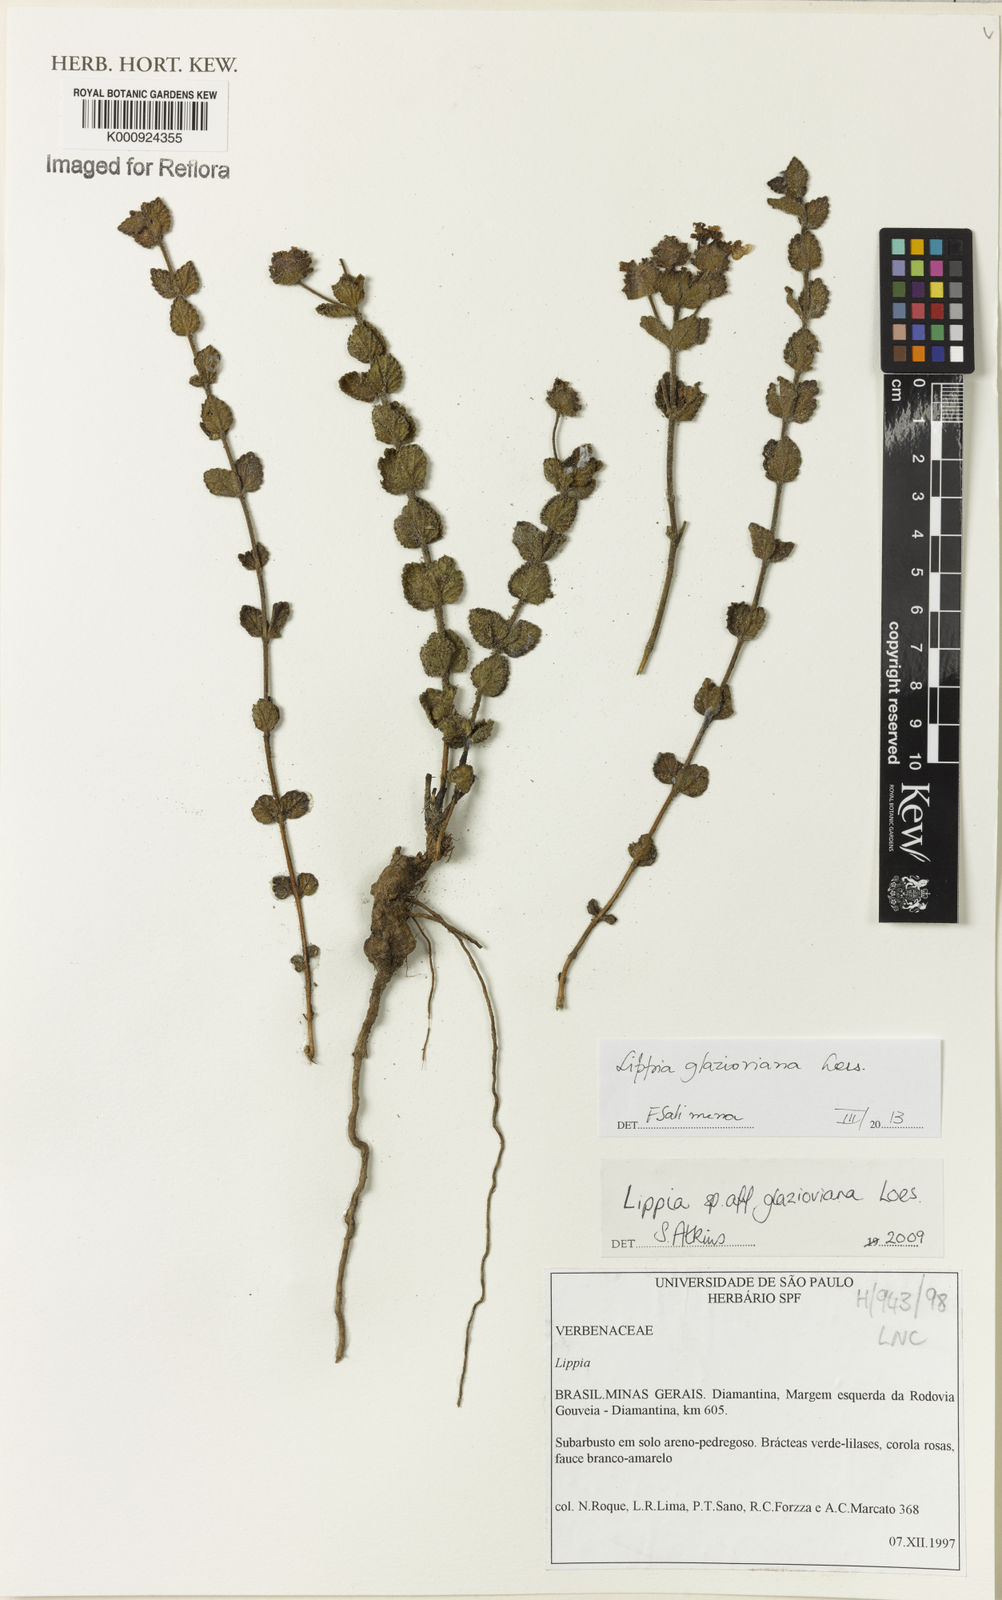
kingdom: Plantae
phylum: Tracheophyta
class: Magnoliopsida
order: Lamiales
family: Verbenaceae
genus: Lippia
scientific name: Lippia glazioviana
